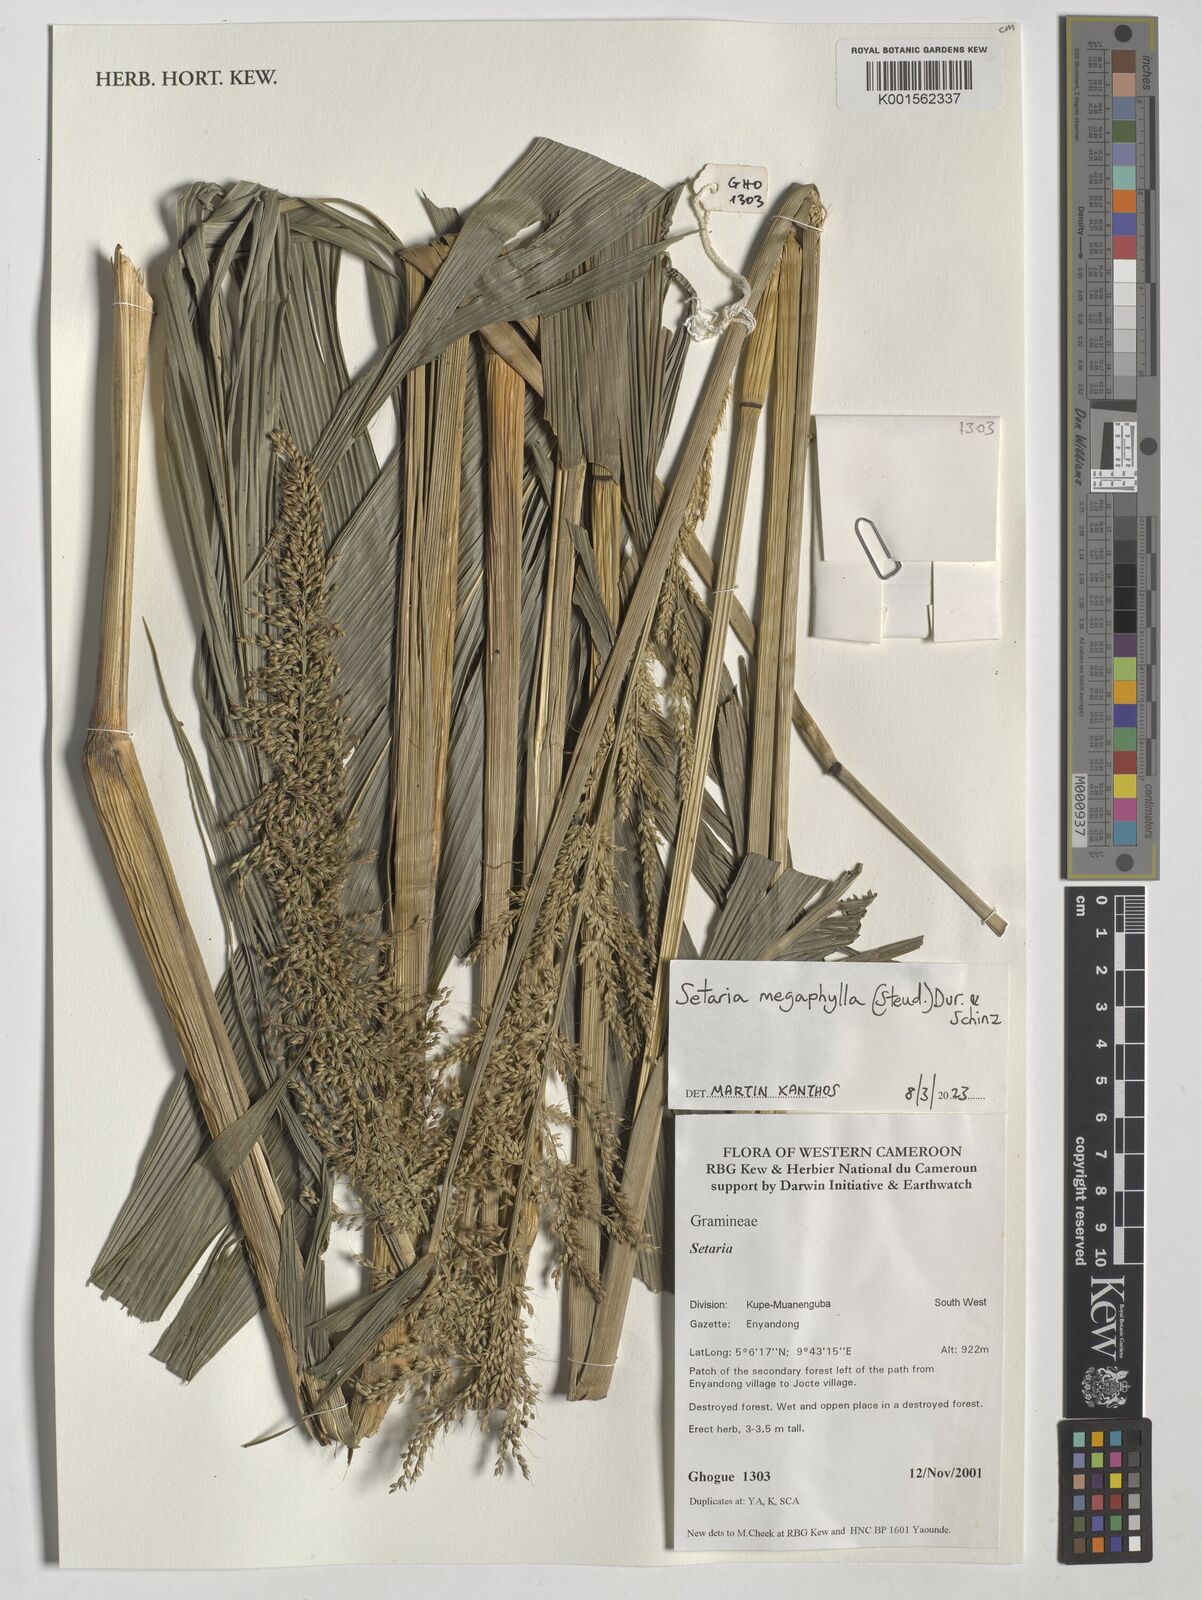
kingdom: Plantae
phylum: Tracheophyta
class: Liliopsida
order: Poales
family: Poaceae
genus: Setaria
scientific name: Setaria megaphylla
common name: Bigleaf bristlegrass
